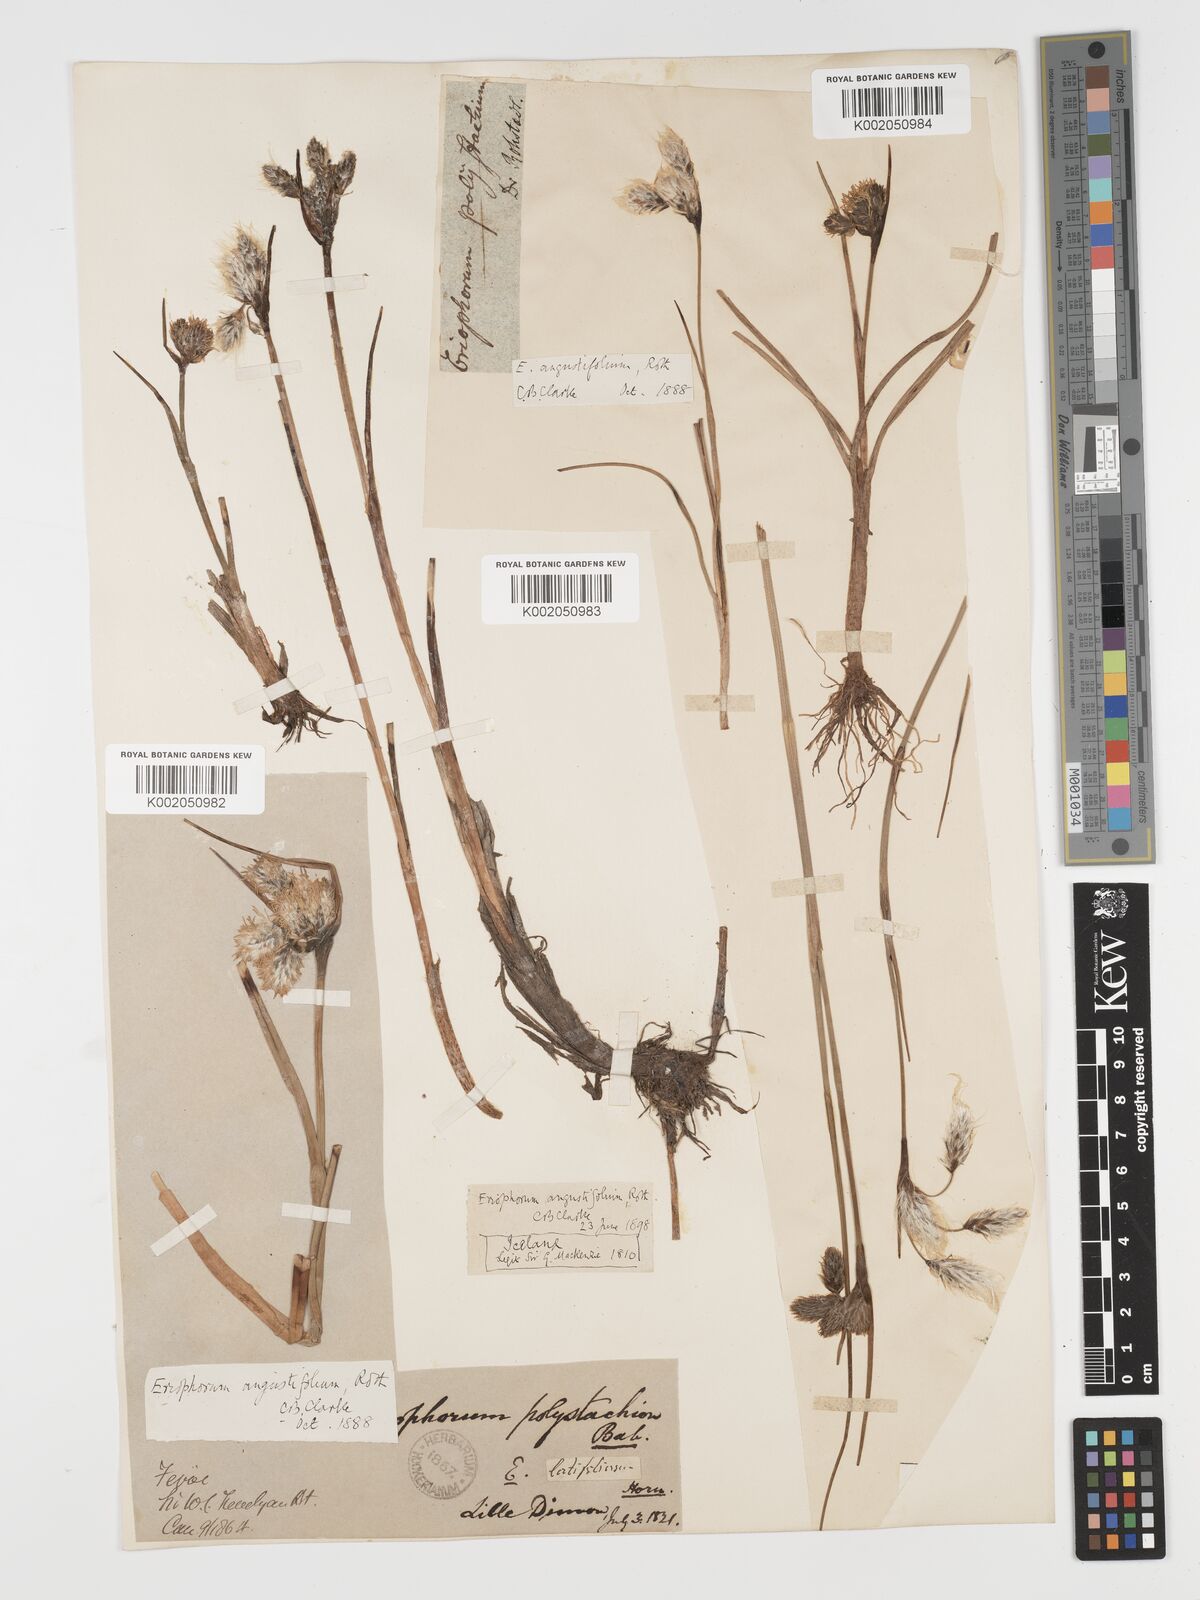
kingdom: Plantae
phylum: Tracheophyta
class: Liliopsida
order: Poales
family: Cyperaceae
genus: Eriophorum
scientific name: Eriophorum angustifolium
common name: Common cottongrass
